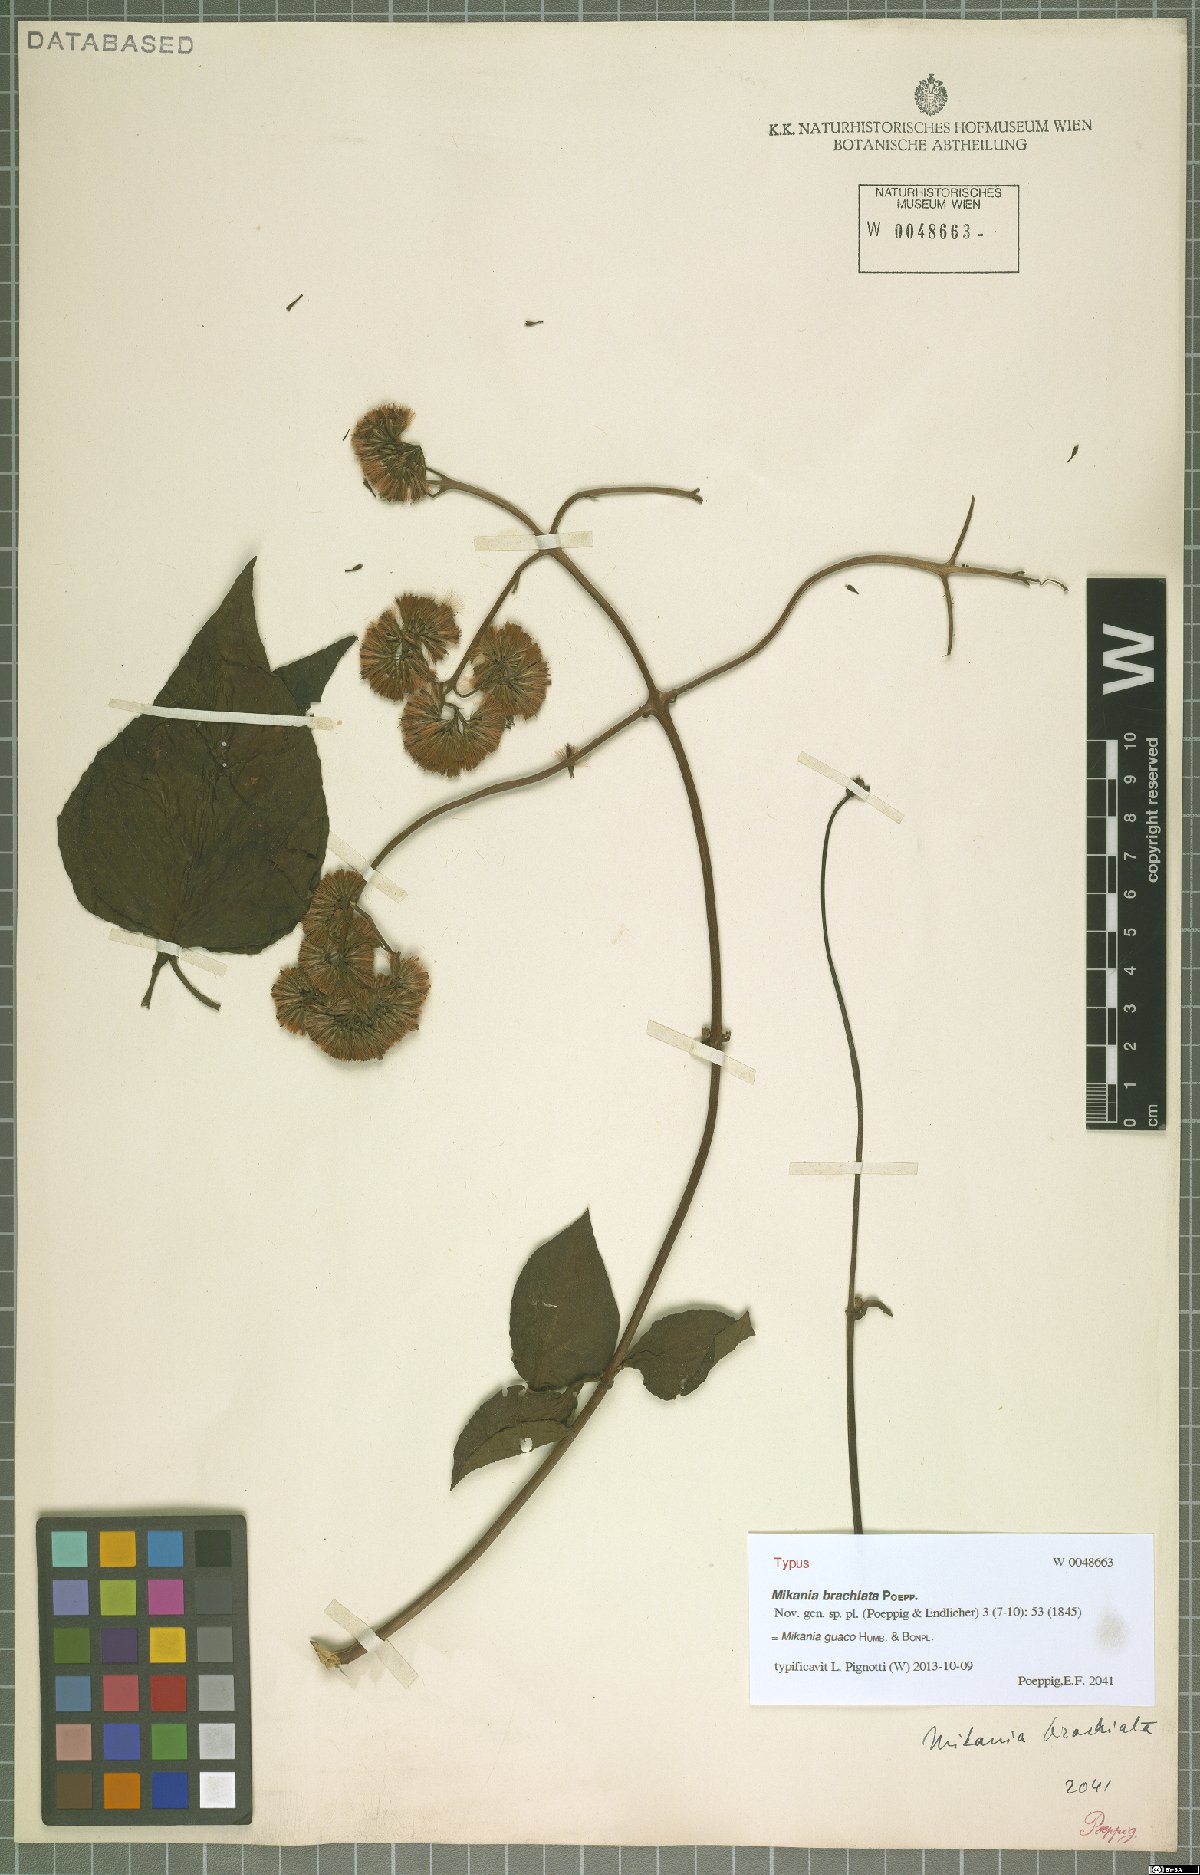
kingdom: Plantae
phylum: Tracheophyta
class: Magnoliopsida
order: Asterales
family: Asteraceae
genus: Mikania
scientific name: Mikania guaco
